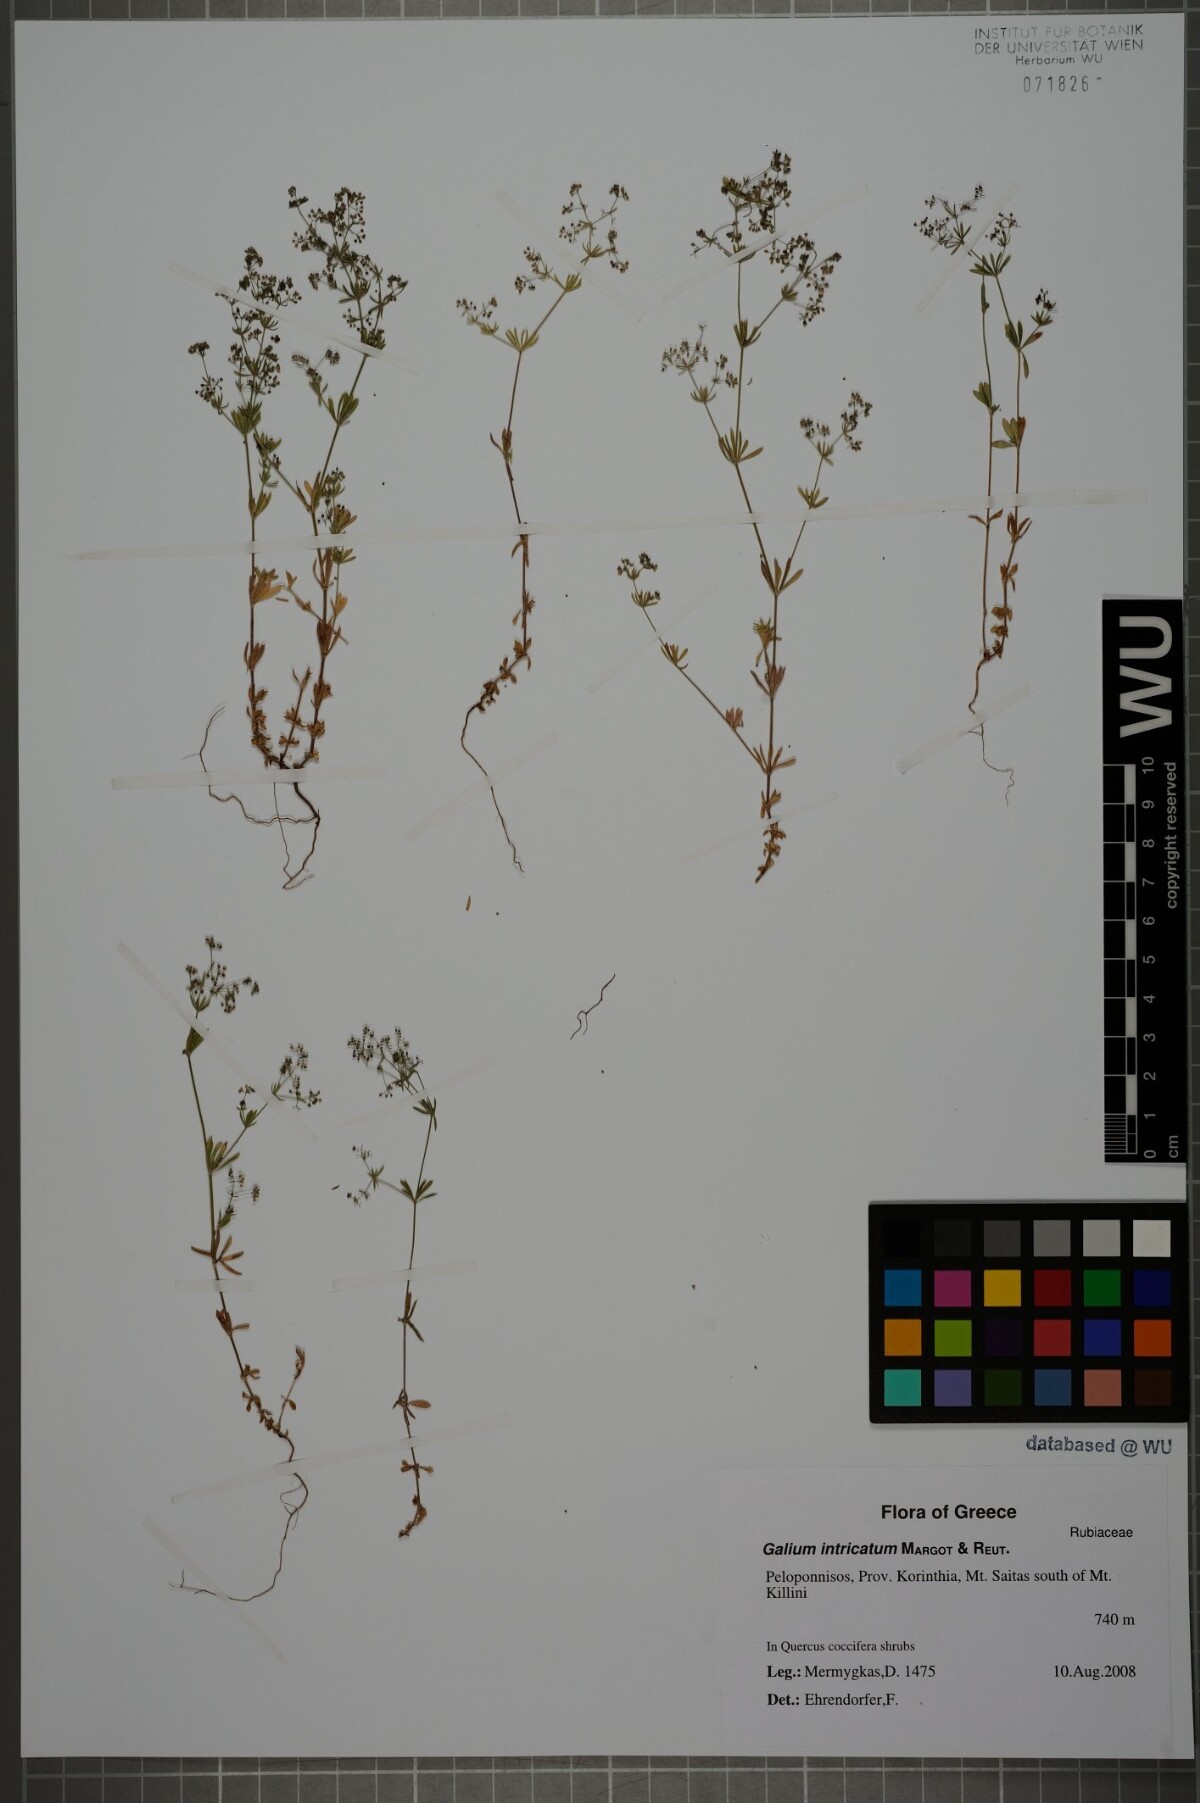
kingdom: Plantae
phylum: Tracheophyta
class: Magnoliopsida
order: Gentianales
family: Rubiaceae
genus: Galium
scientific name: Galium intricatum
